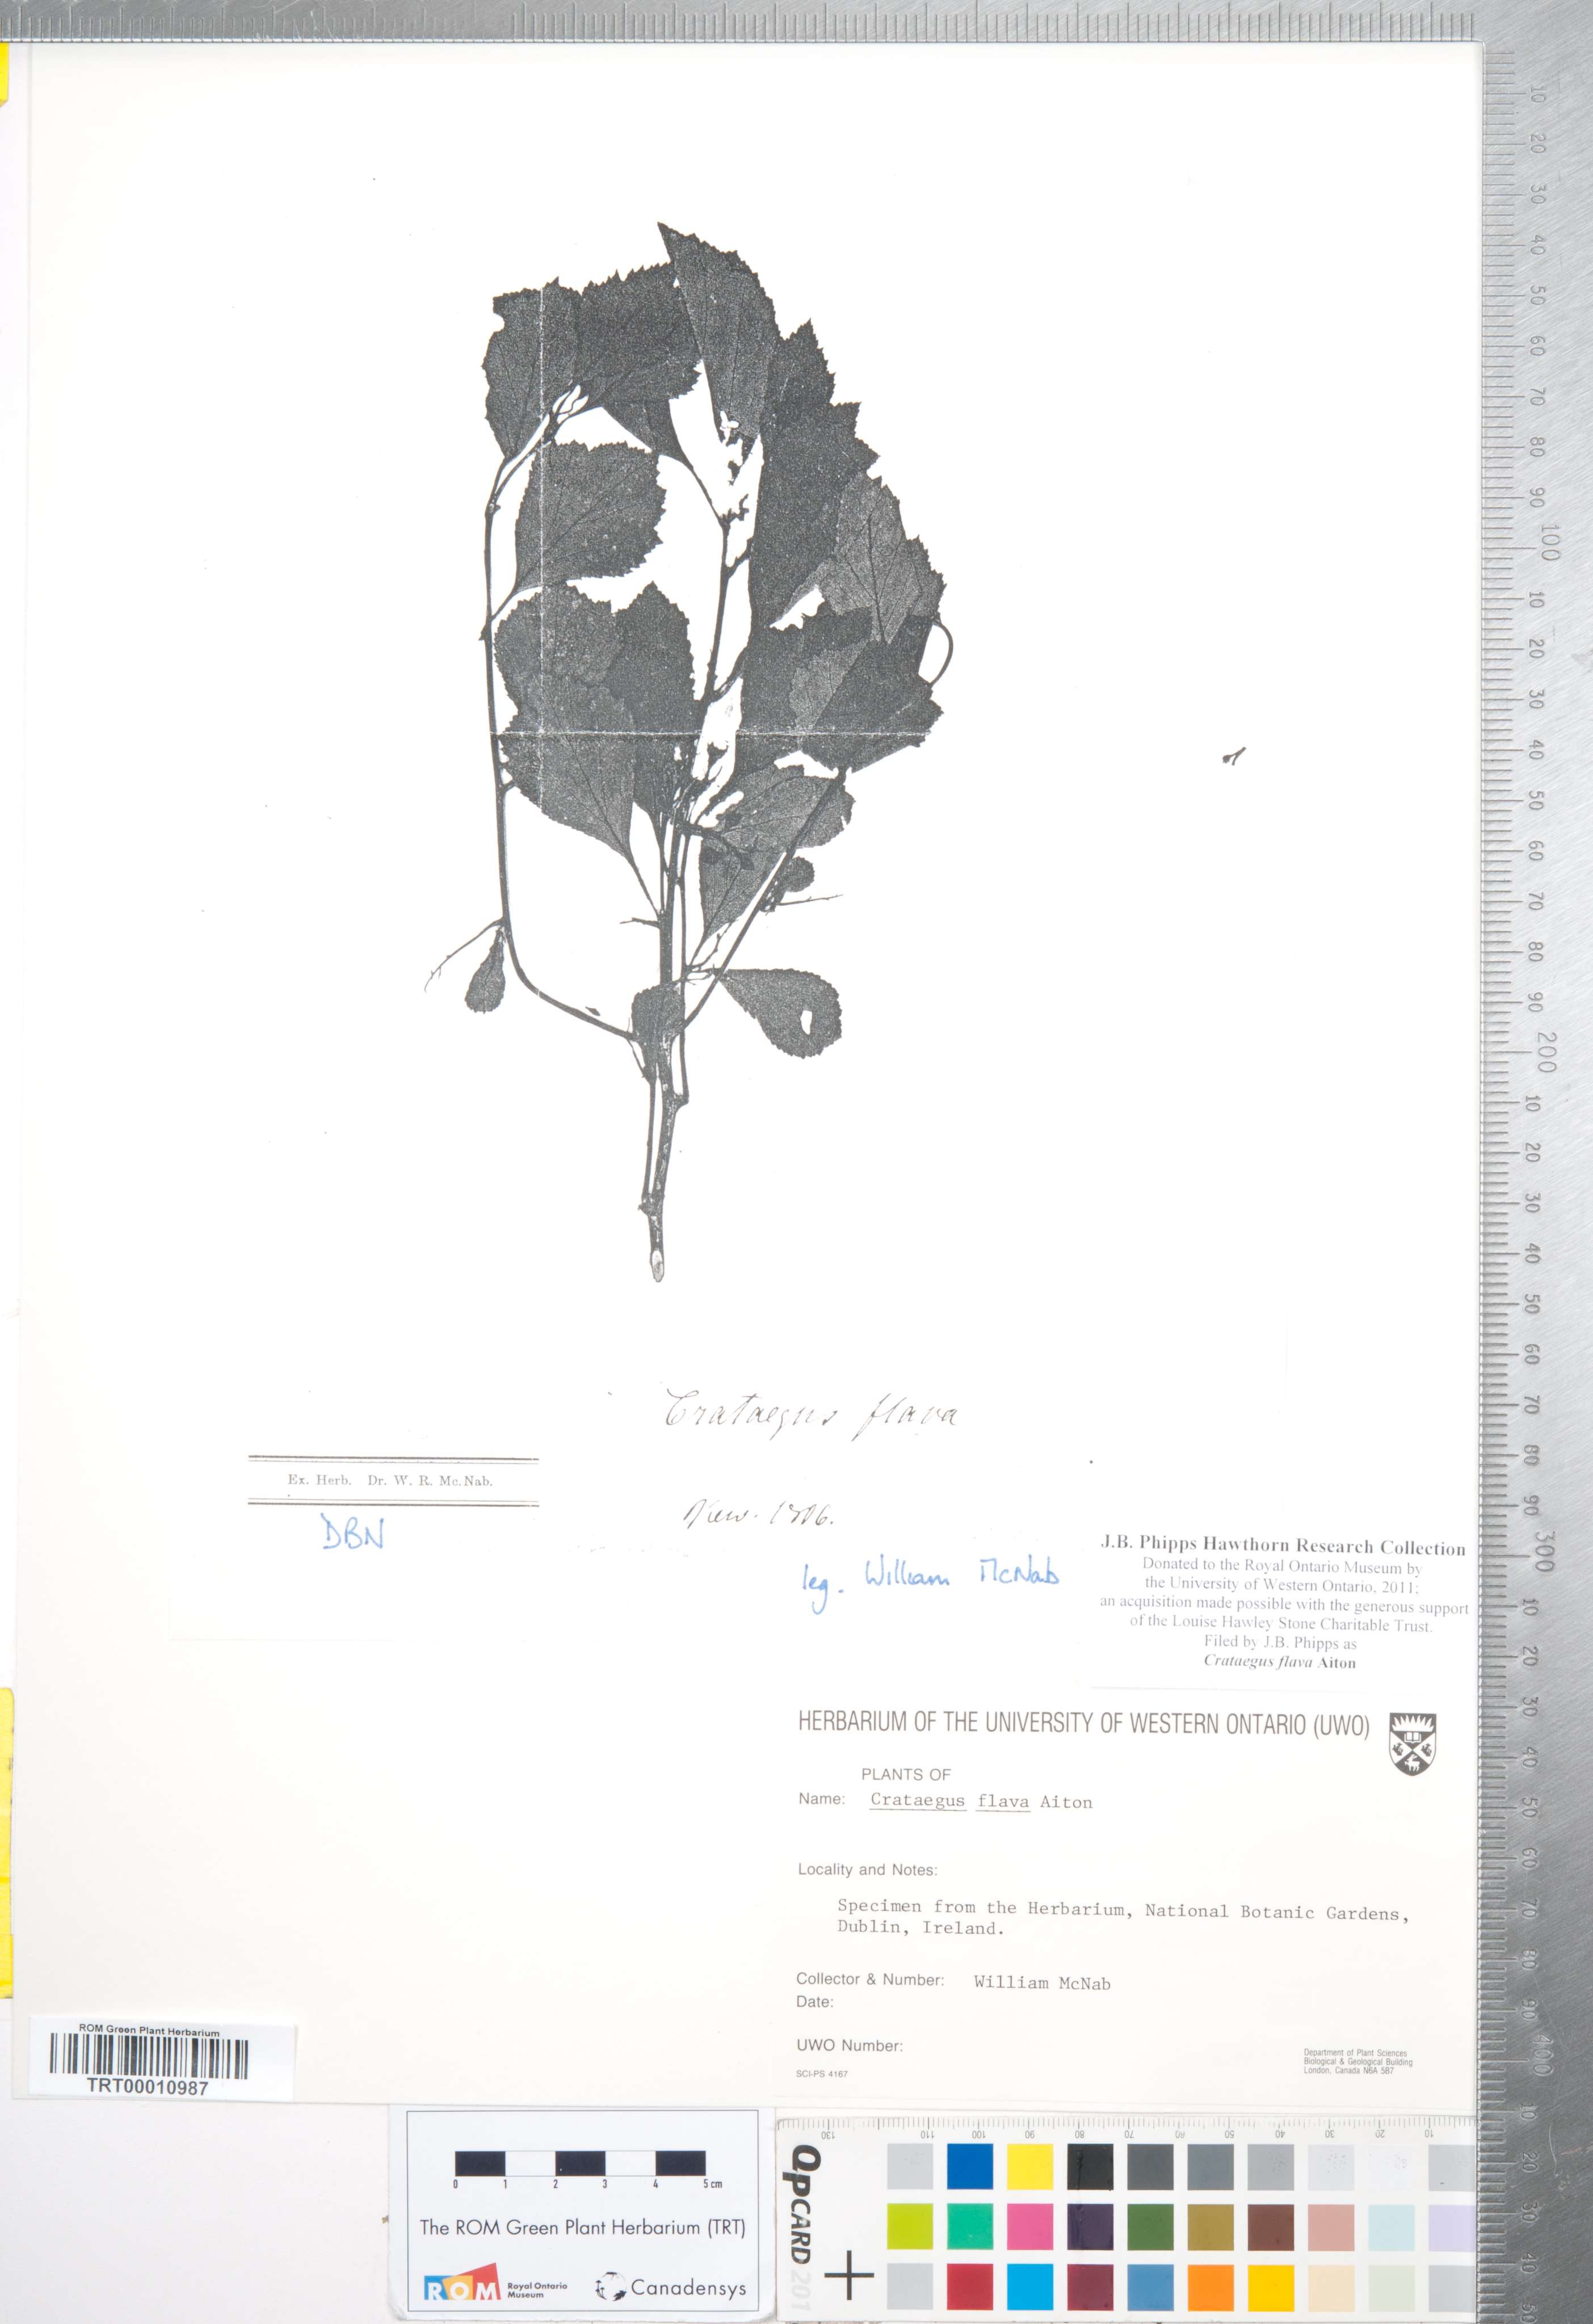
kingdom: Plantae
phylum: Tracheophyta
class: Magnoliopsida
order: Rosales
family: Rosaceae
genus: Crataegus
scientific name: Crataegus flava
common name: Yellow hawthorn
